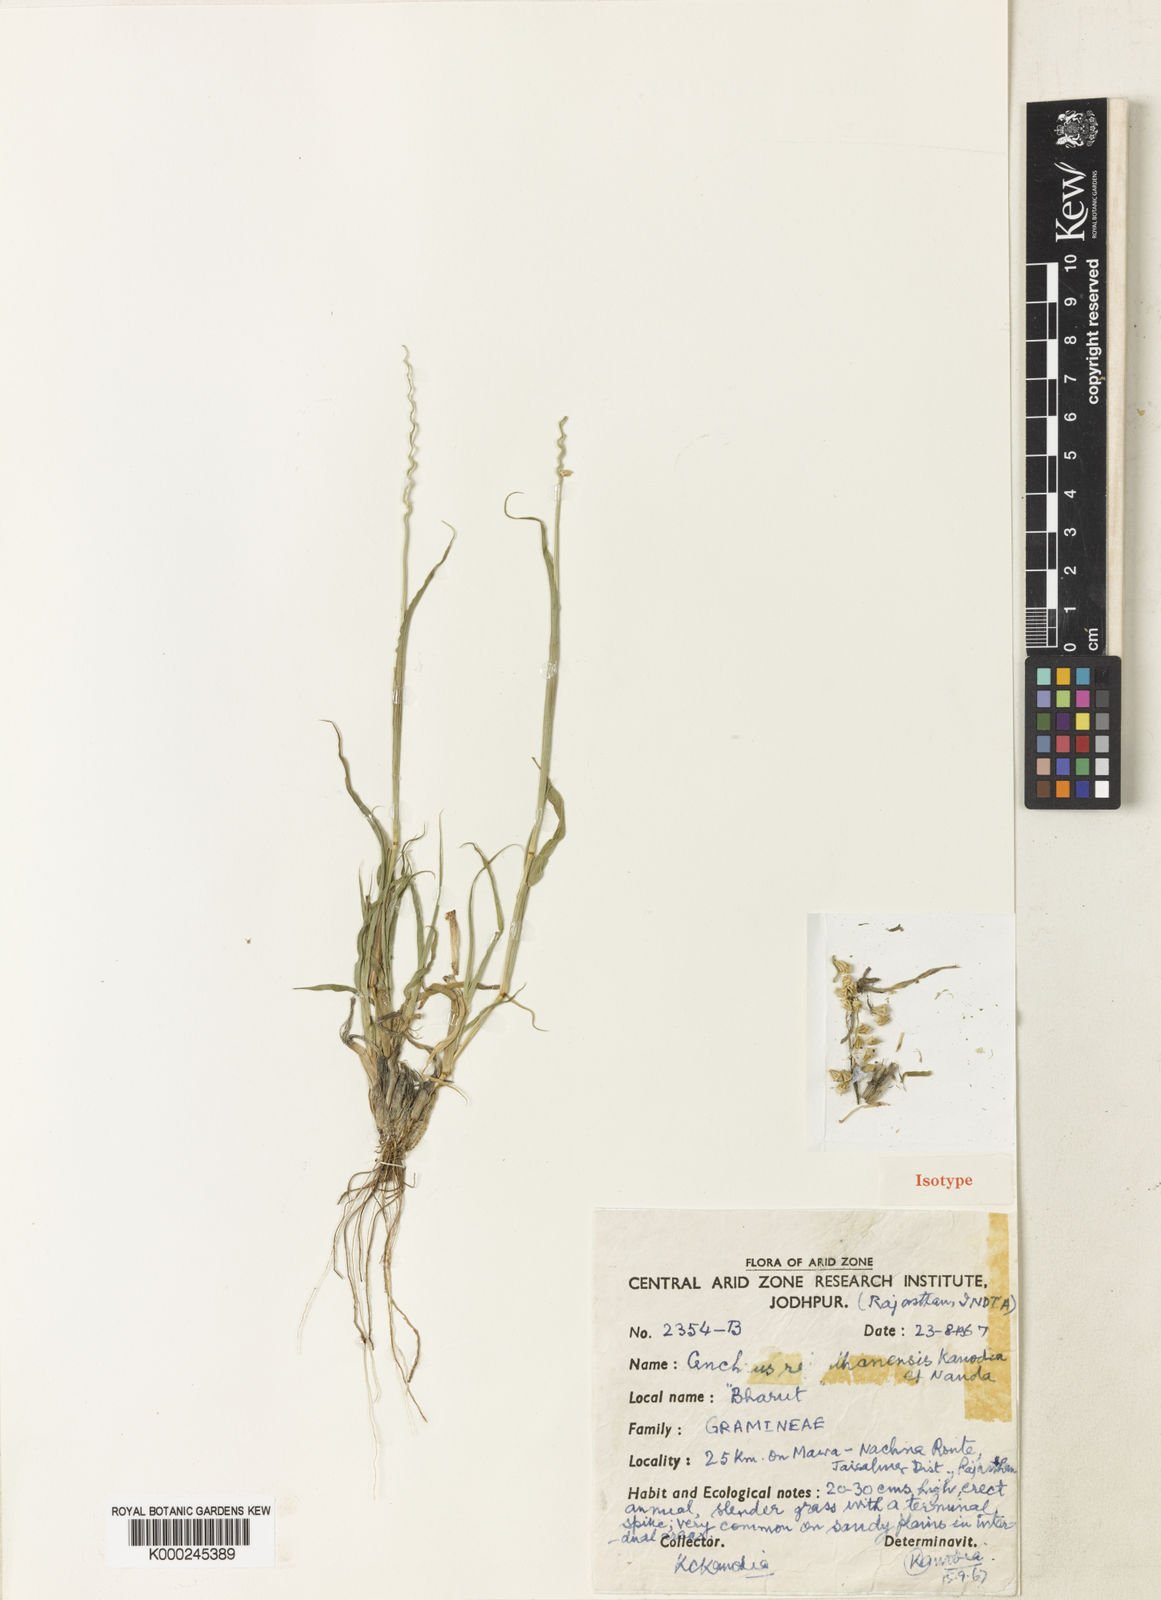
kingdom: Plantae
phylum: Tracheophyta
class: Liliopsida
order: Poales
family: Poaceae
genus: Cenchrus
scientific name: Cenchrus biflorus
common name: Indian sandbur
